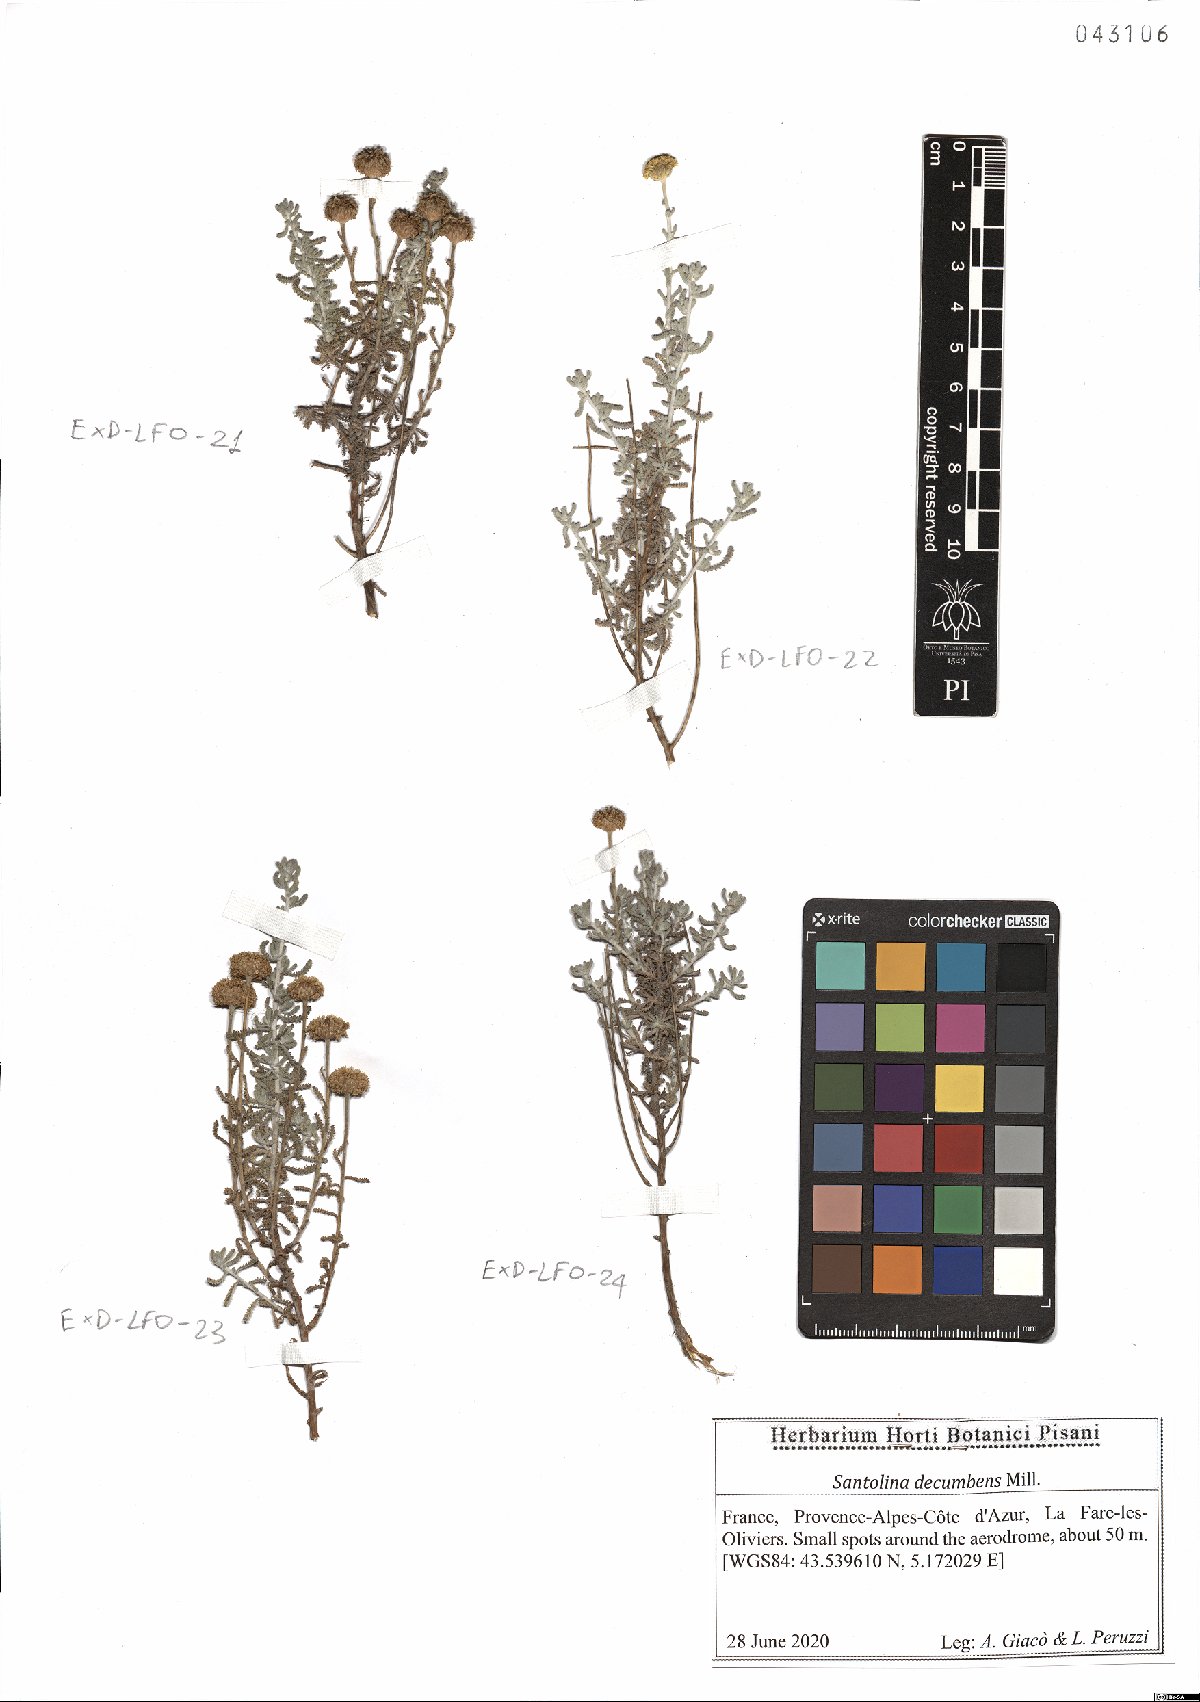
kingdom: Plantae
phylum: Tracheophyta
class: Magnoliopsida
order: Asterales
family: Asteraceae
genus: Santolina
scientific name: Santolina decumbens
